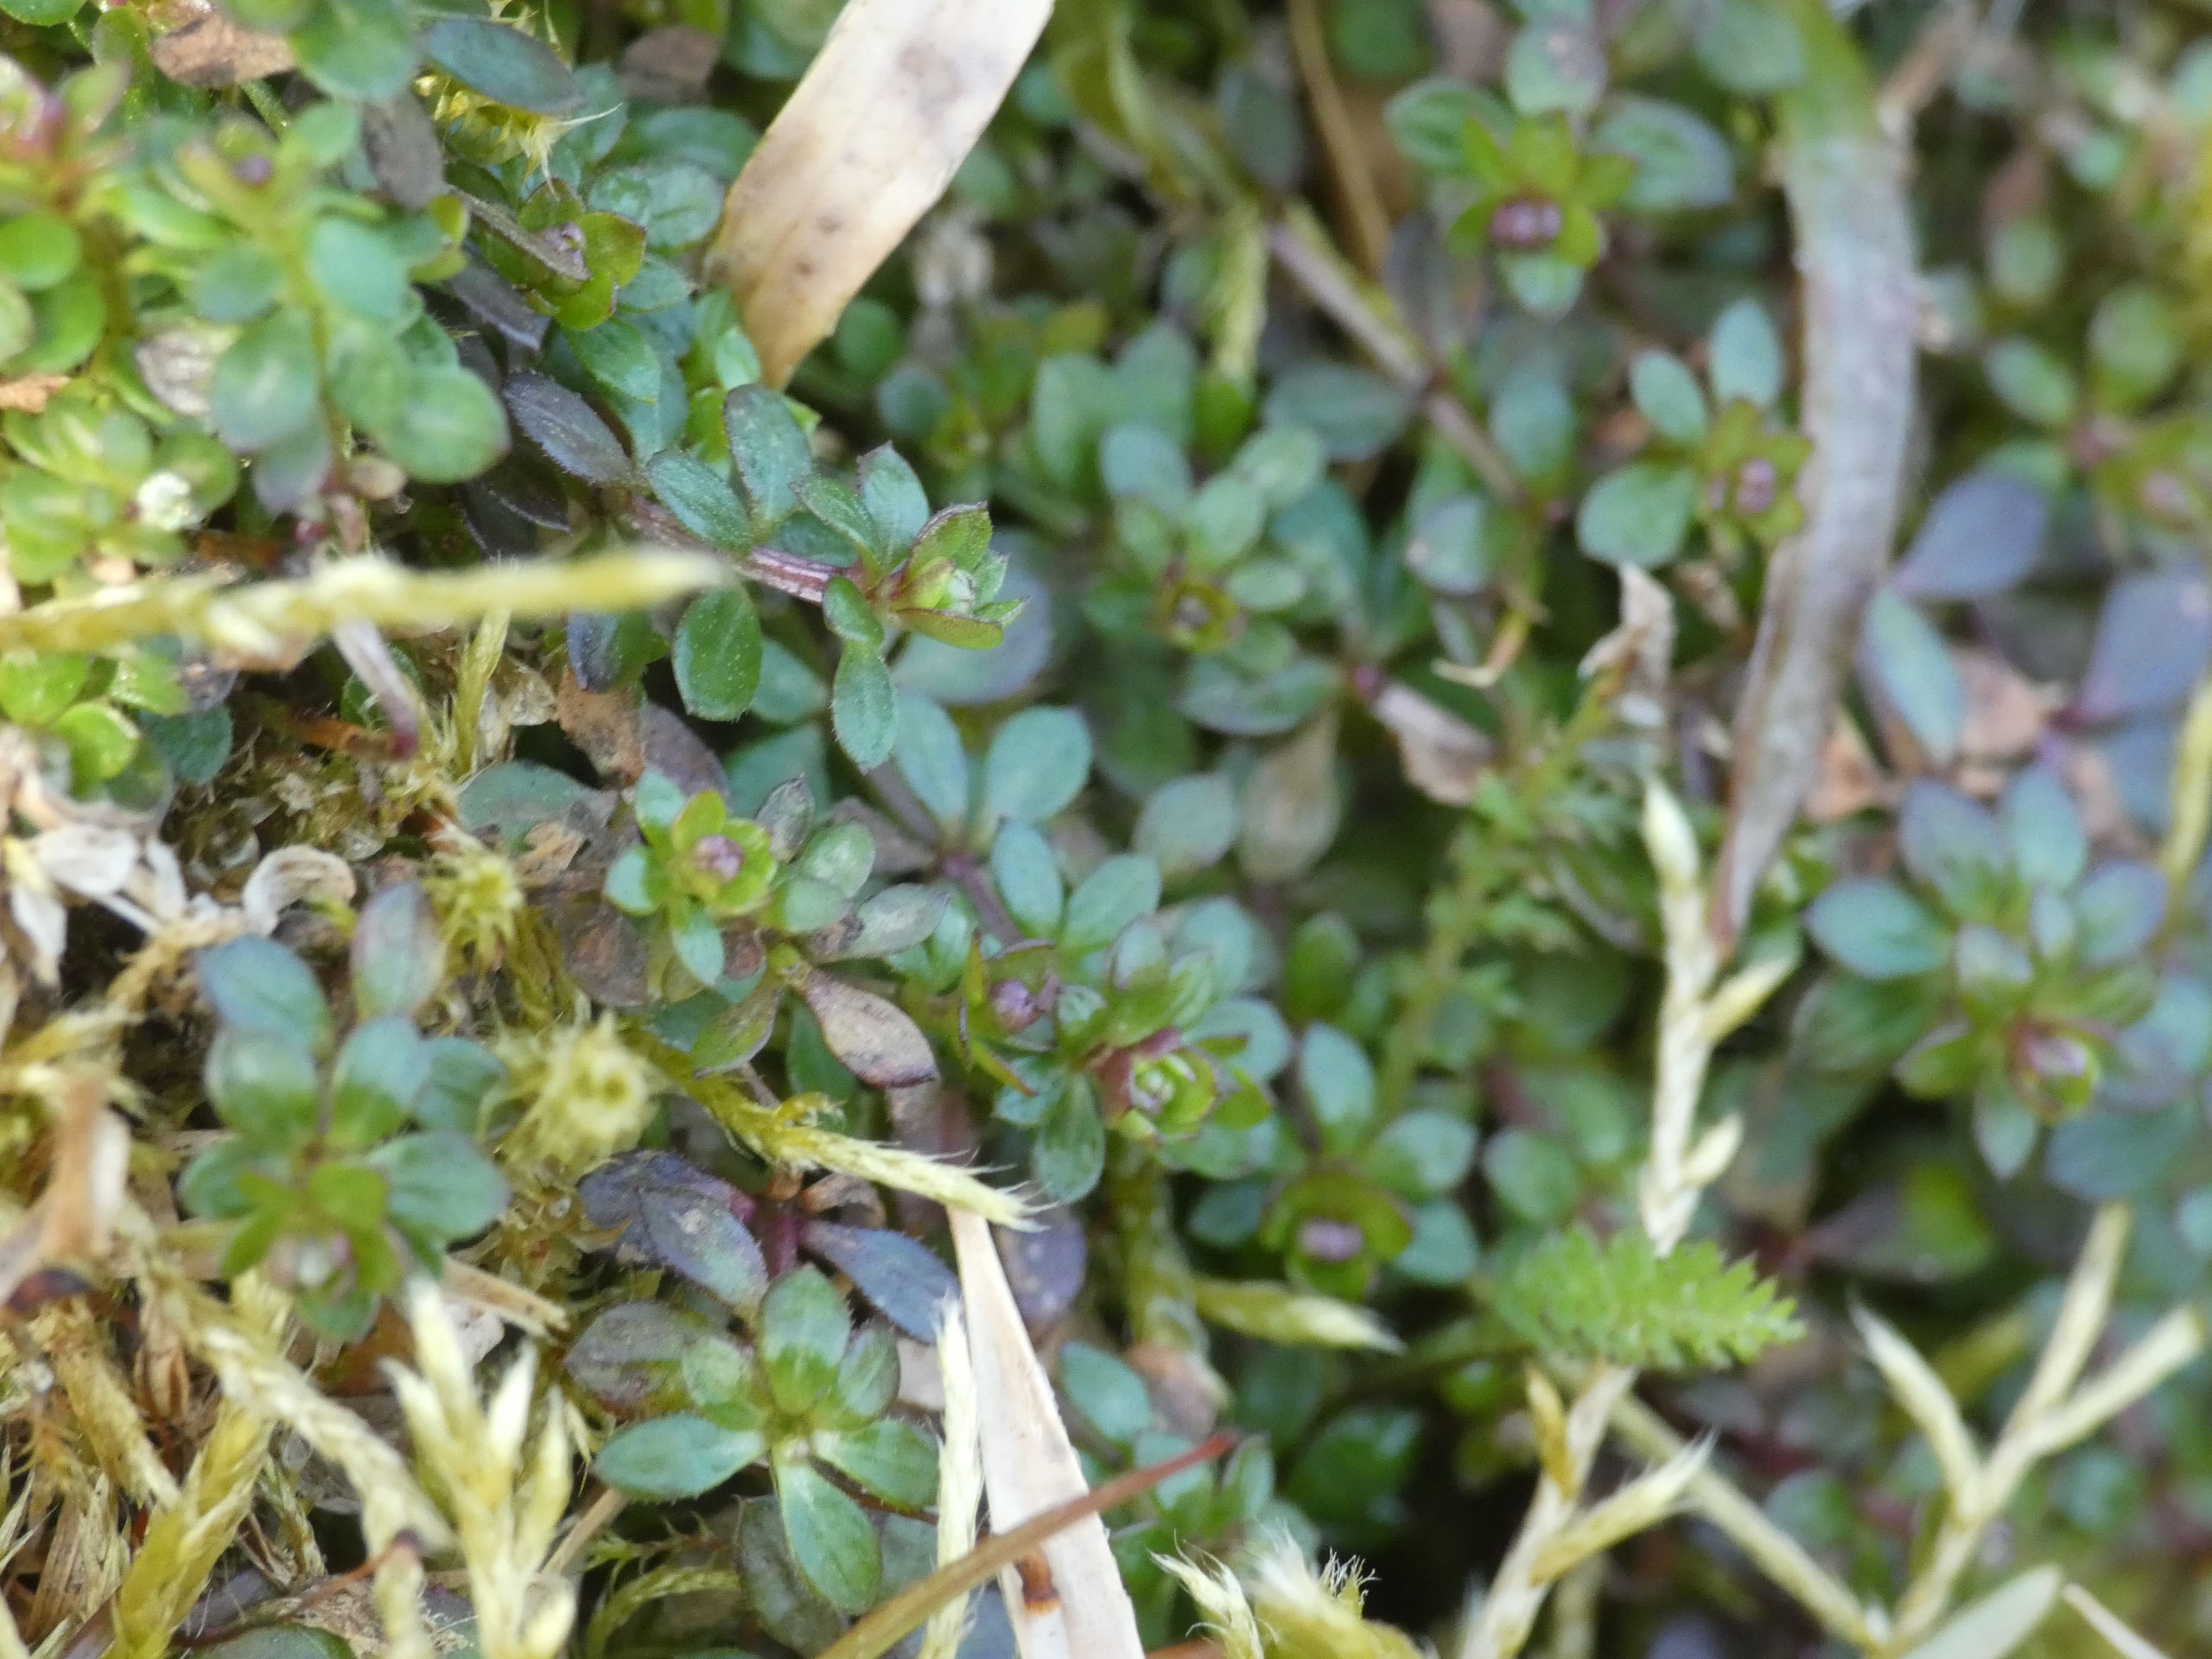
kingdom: Plantae
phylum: Tracheophyta
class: Magnoliopsida
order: Gentianales
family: Rubiaceae
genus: Galium
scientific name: Galium saxatile
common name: Lyng-snerre
